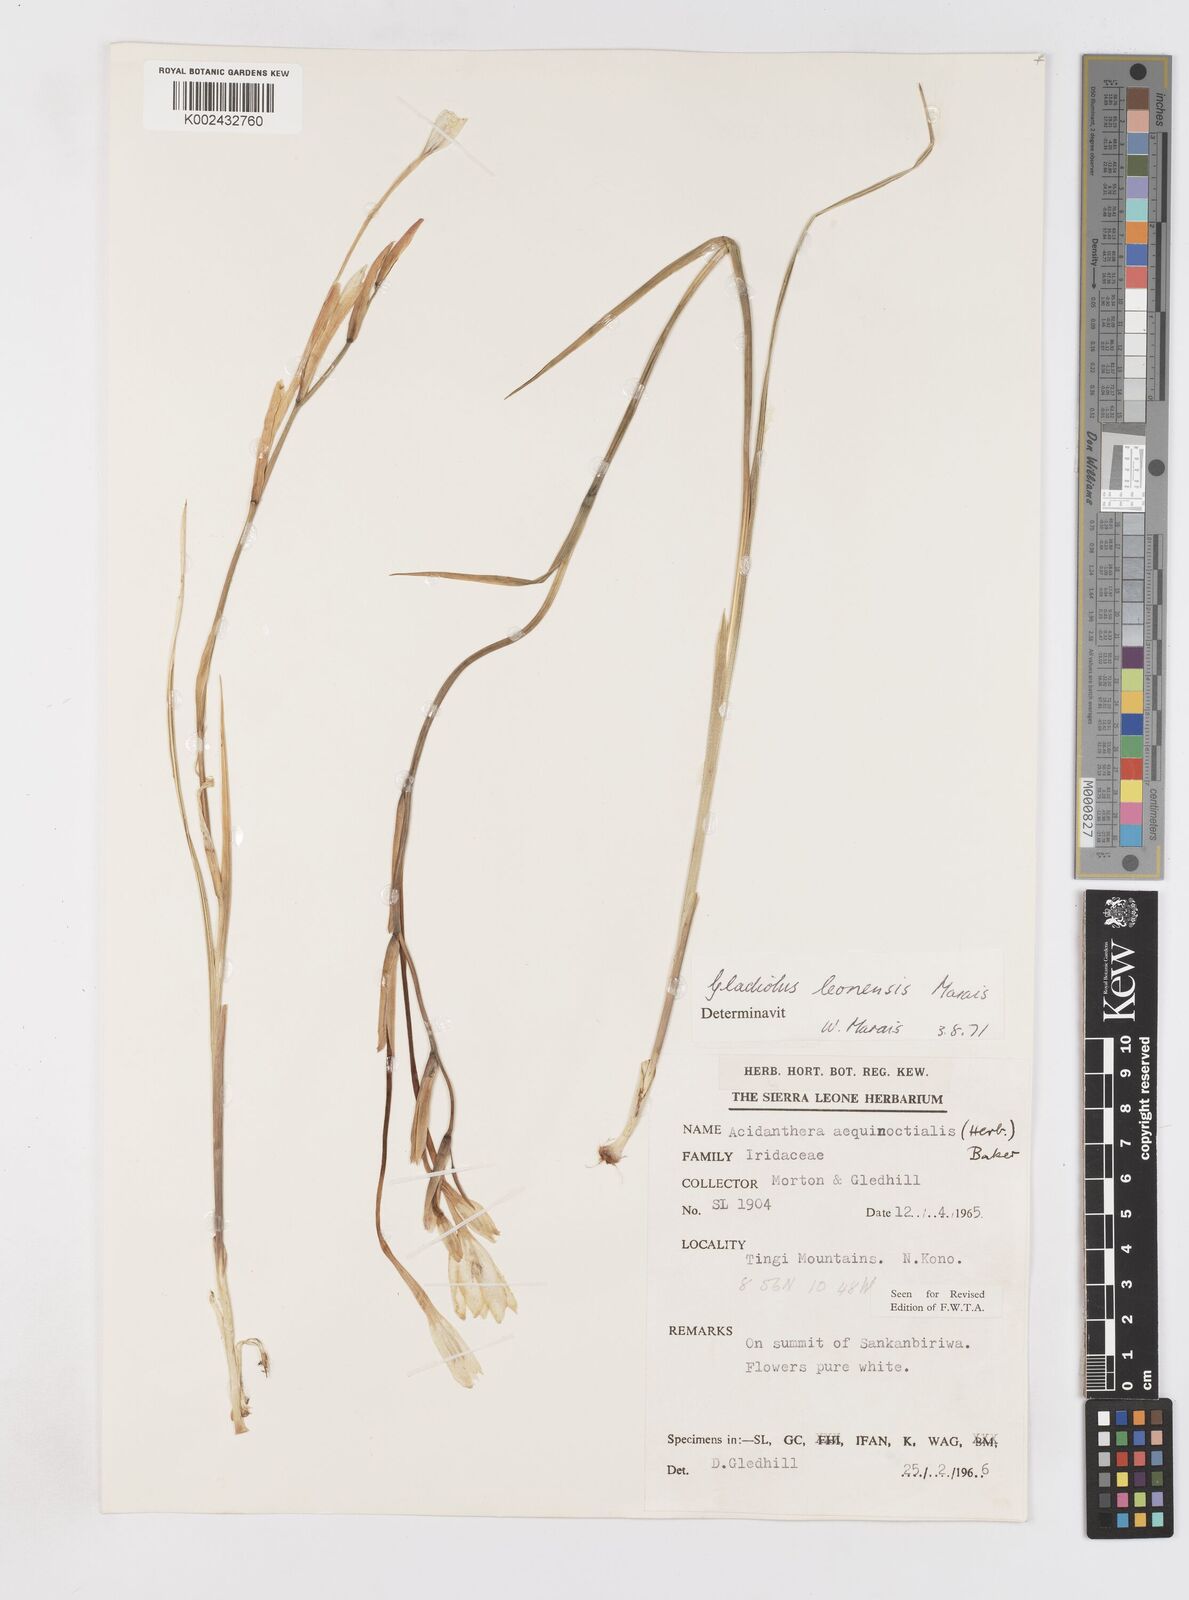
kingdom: Plantae
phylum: Tracheophyta
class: Liliopsida
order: Asparagales
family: Iridaceae
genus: Gladiolus
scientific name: Gladiolus leonensis
